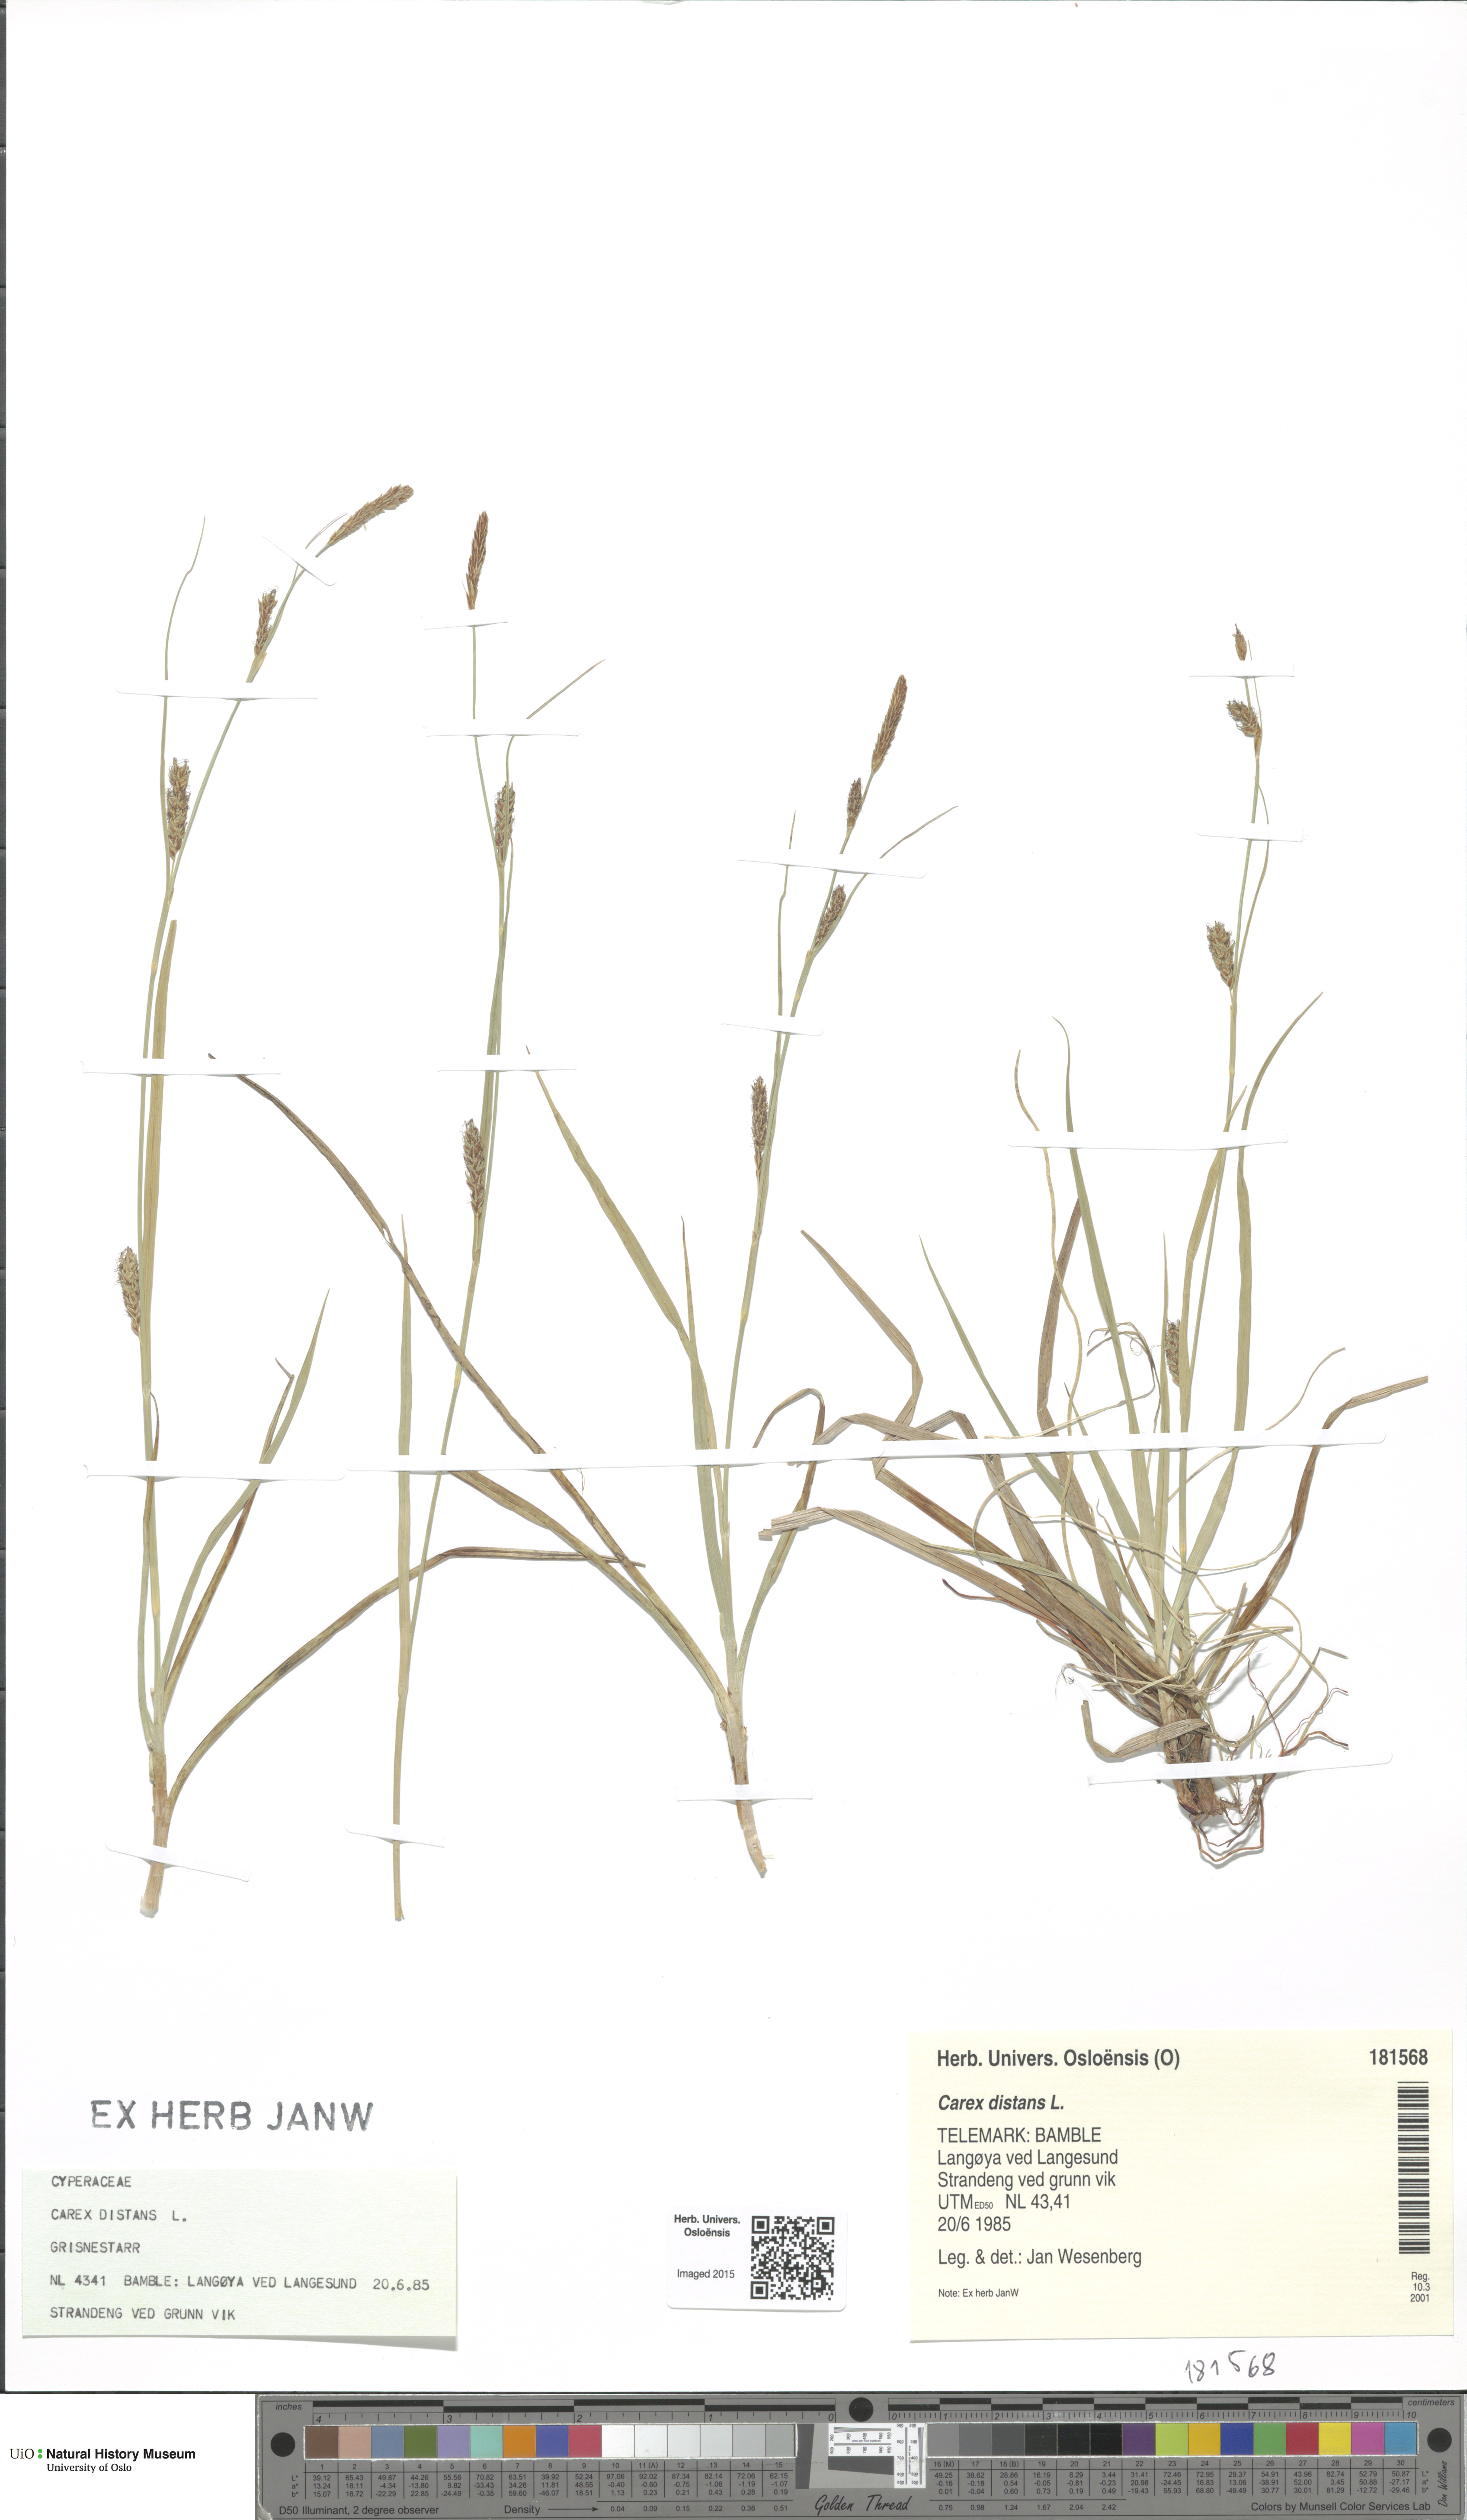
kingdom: Plantae
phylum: Tracheophyta
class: Liliopsida
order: Poales
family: Cyperaceae
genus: Carex
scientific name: Carex distans
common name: Distant sedge
